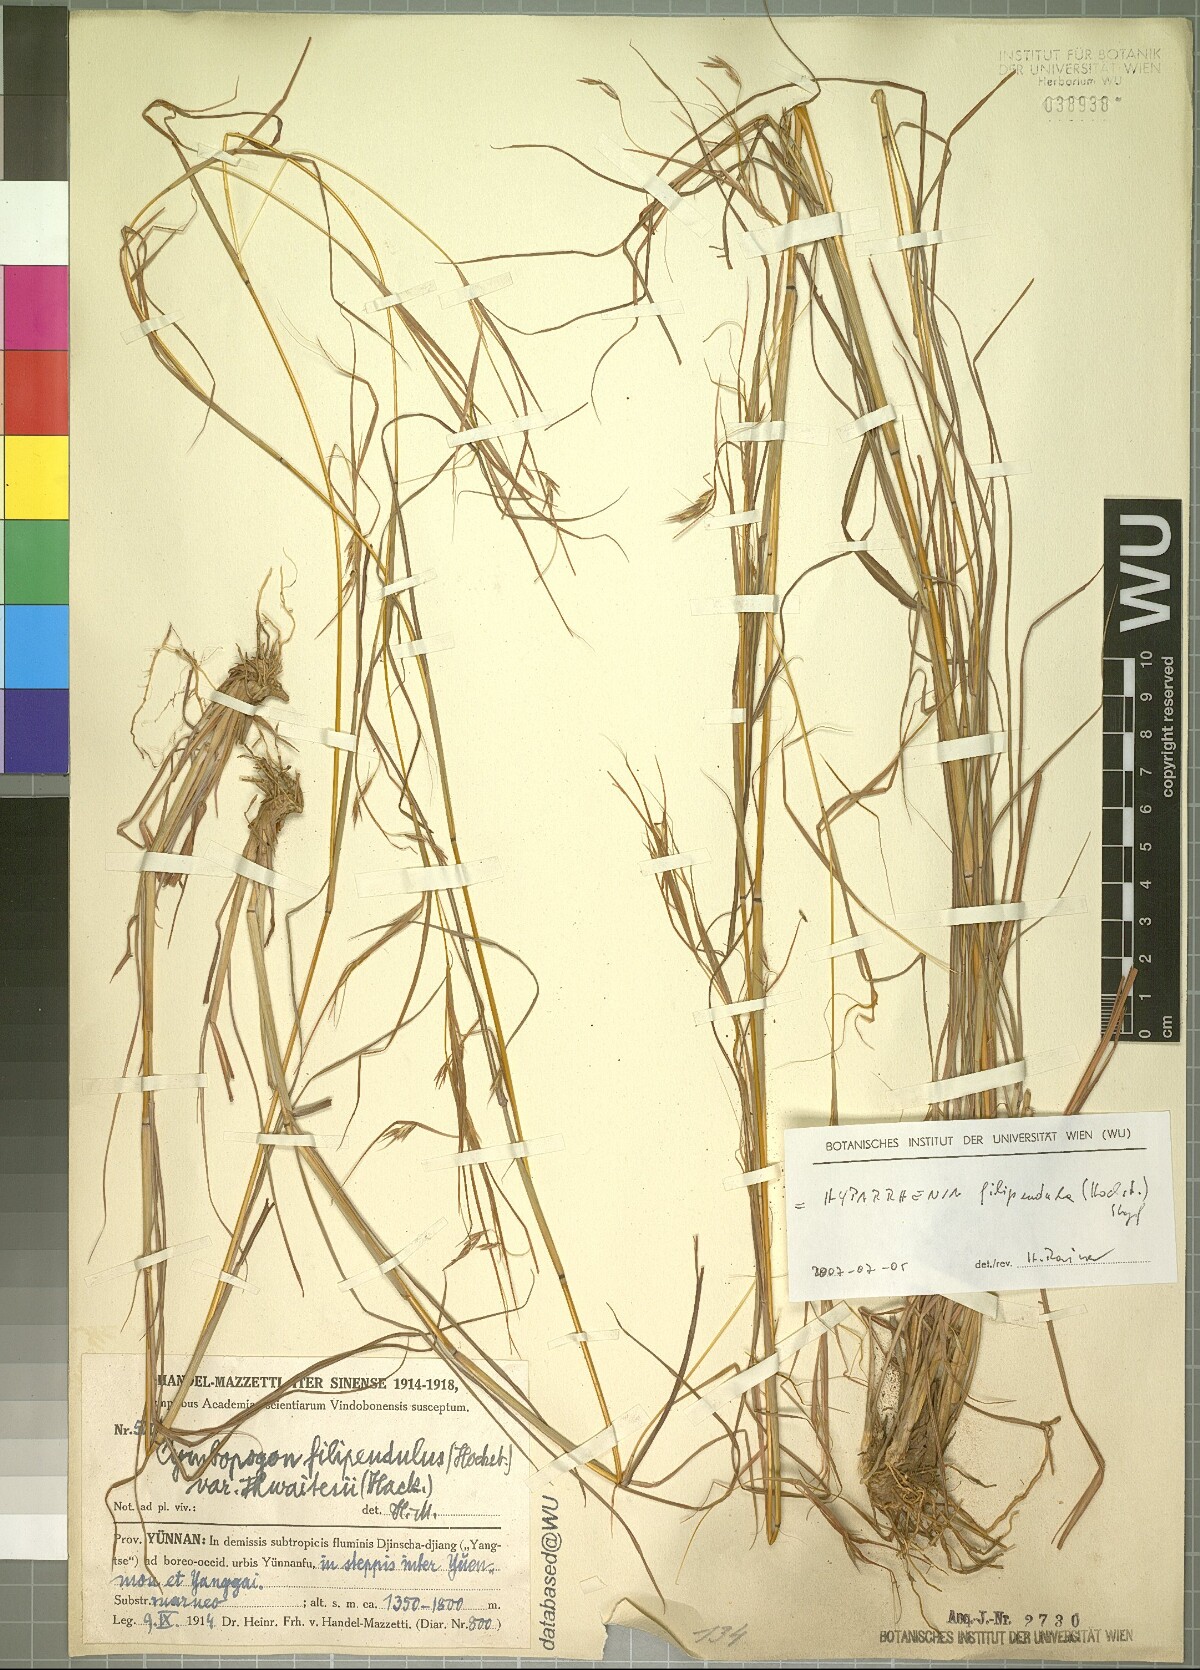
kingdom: Plantae
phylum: Tracheophyta
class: Liliopsida
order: Poales
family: Poaceae
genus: Hyparrhenia
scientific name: Hyparrhenia filipendula
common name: Tambookie grass
